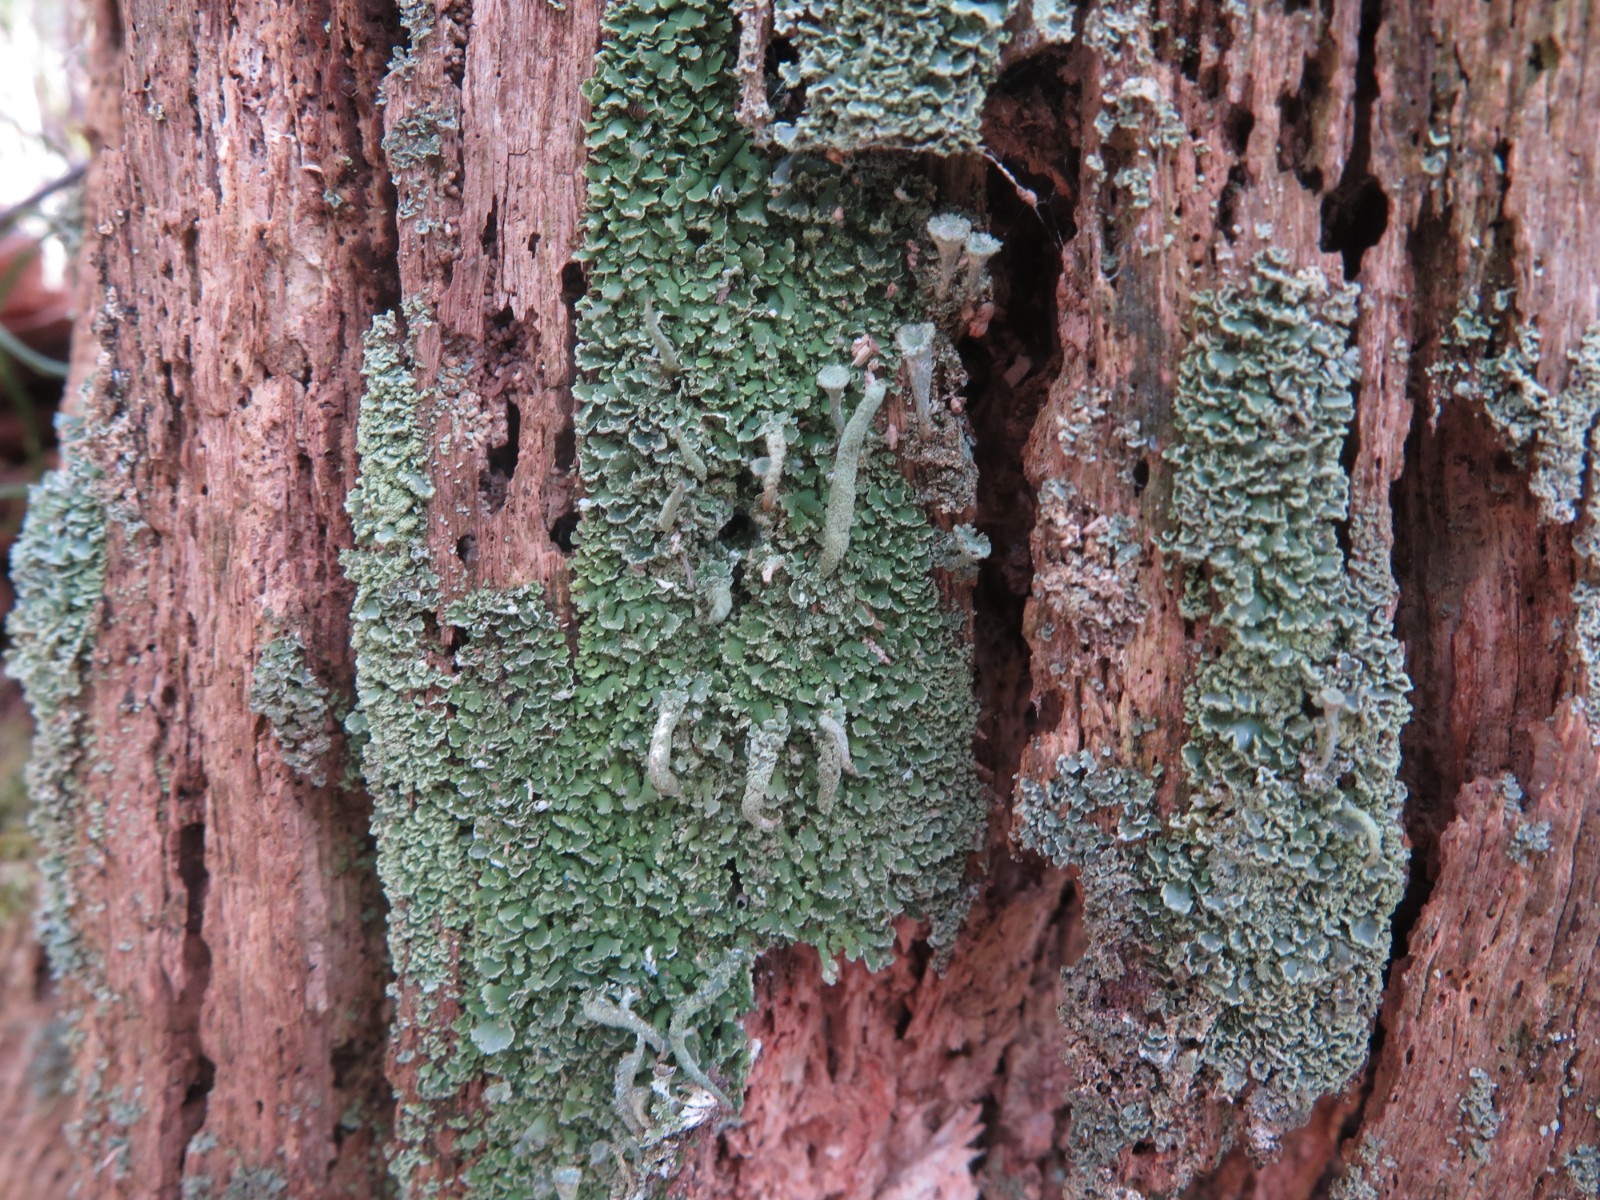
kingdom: Fungi
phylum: Ascomycota
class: Lecanoromycetes
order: Lecanorales
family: Cladoniaceae
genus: Cladonia
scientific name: Cladonia digitata
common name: finger-bægerlav
